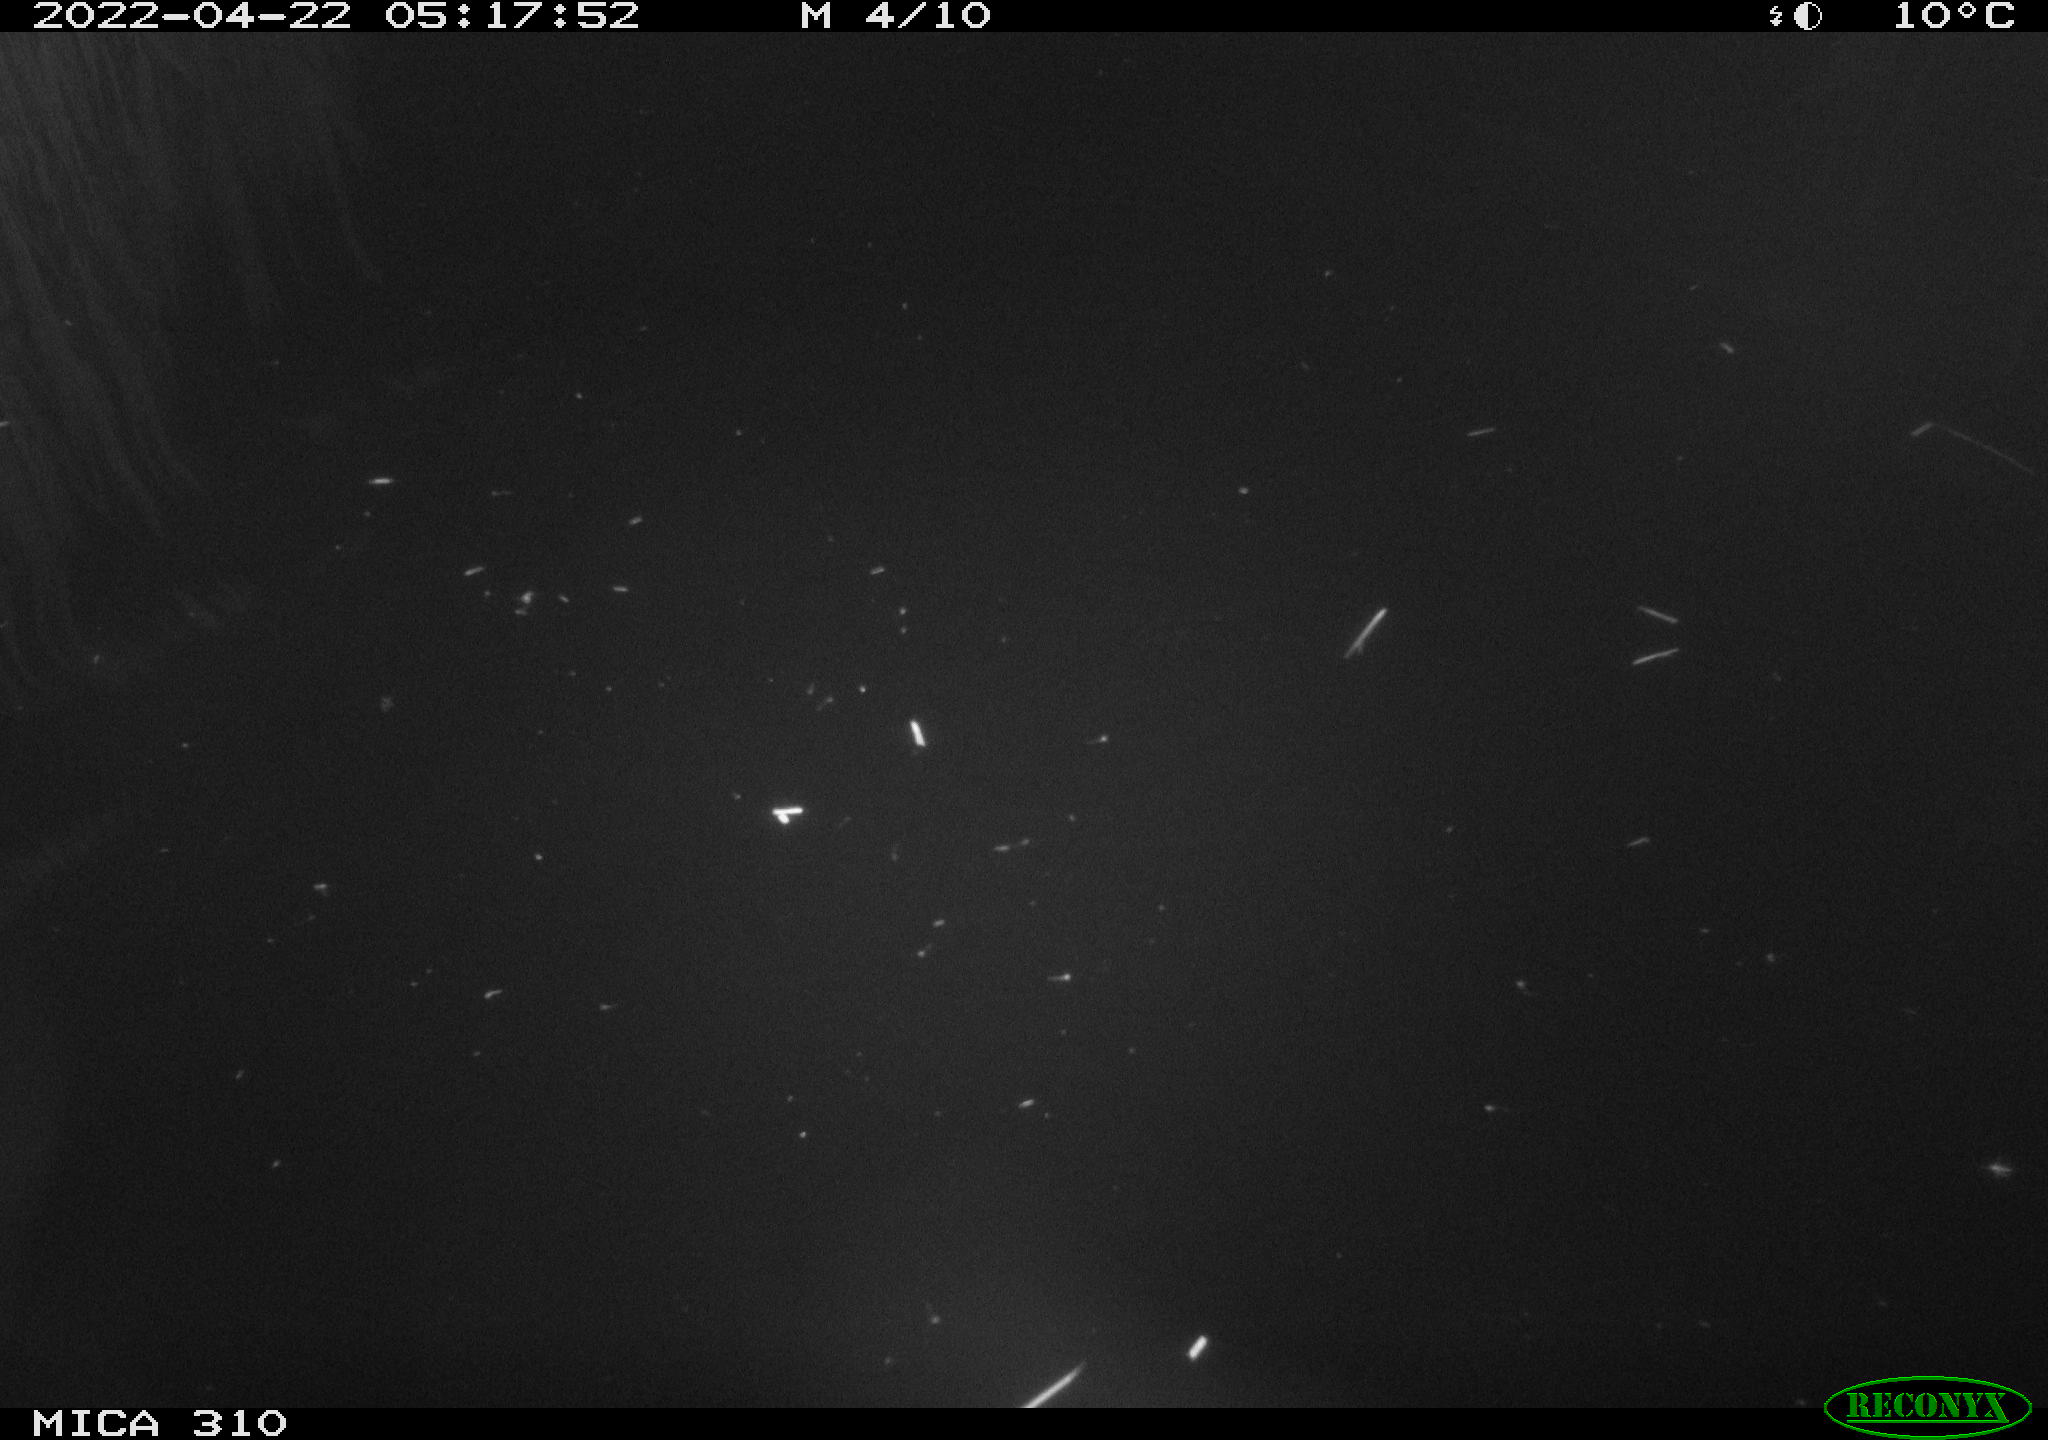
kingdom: Animalia
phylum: Chordata
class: Aves
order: Anseriformes
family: Anatidae
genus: Anas
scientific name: Anas platyrhynchos
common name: Mallard
